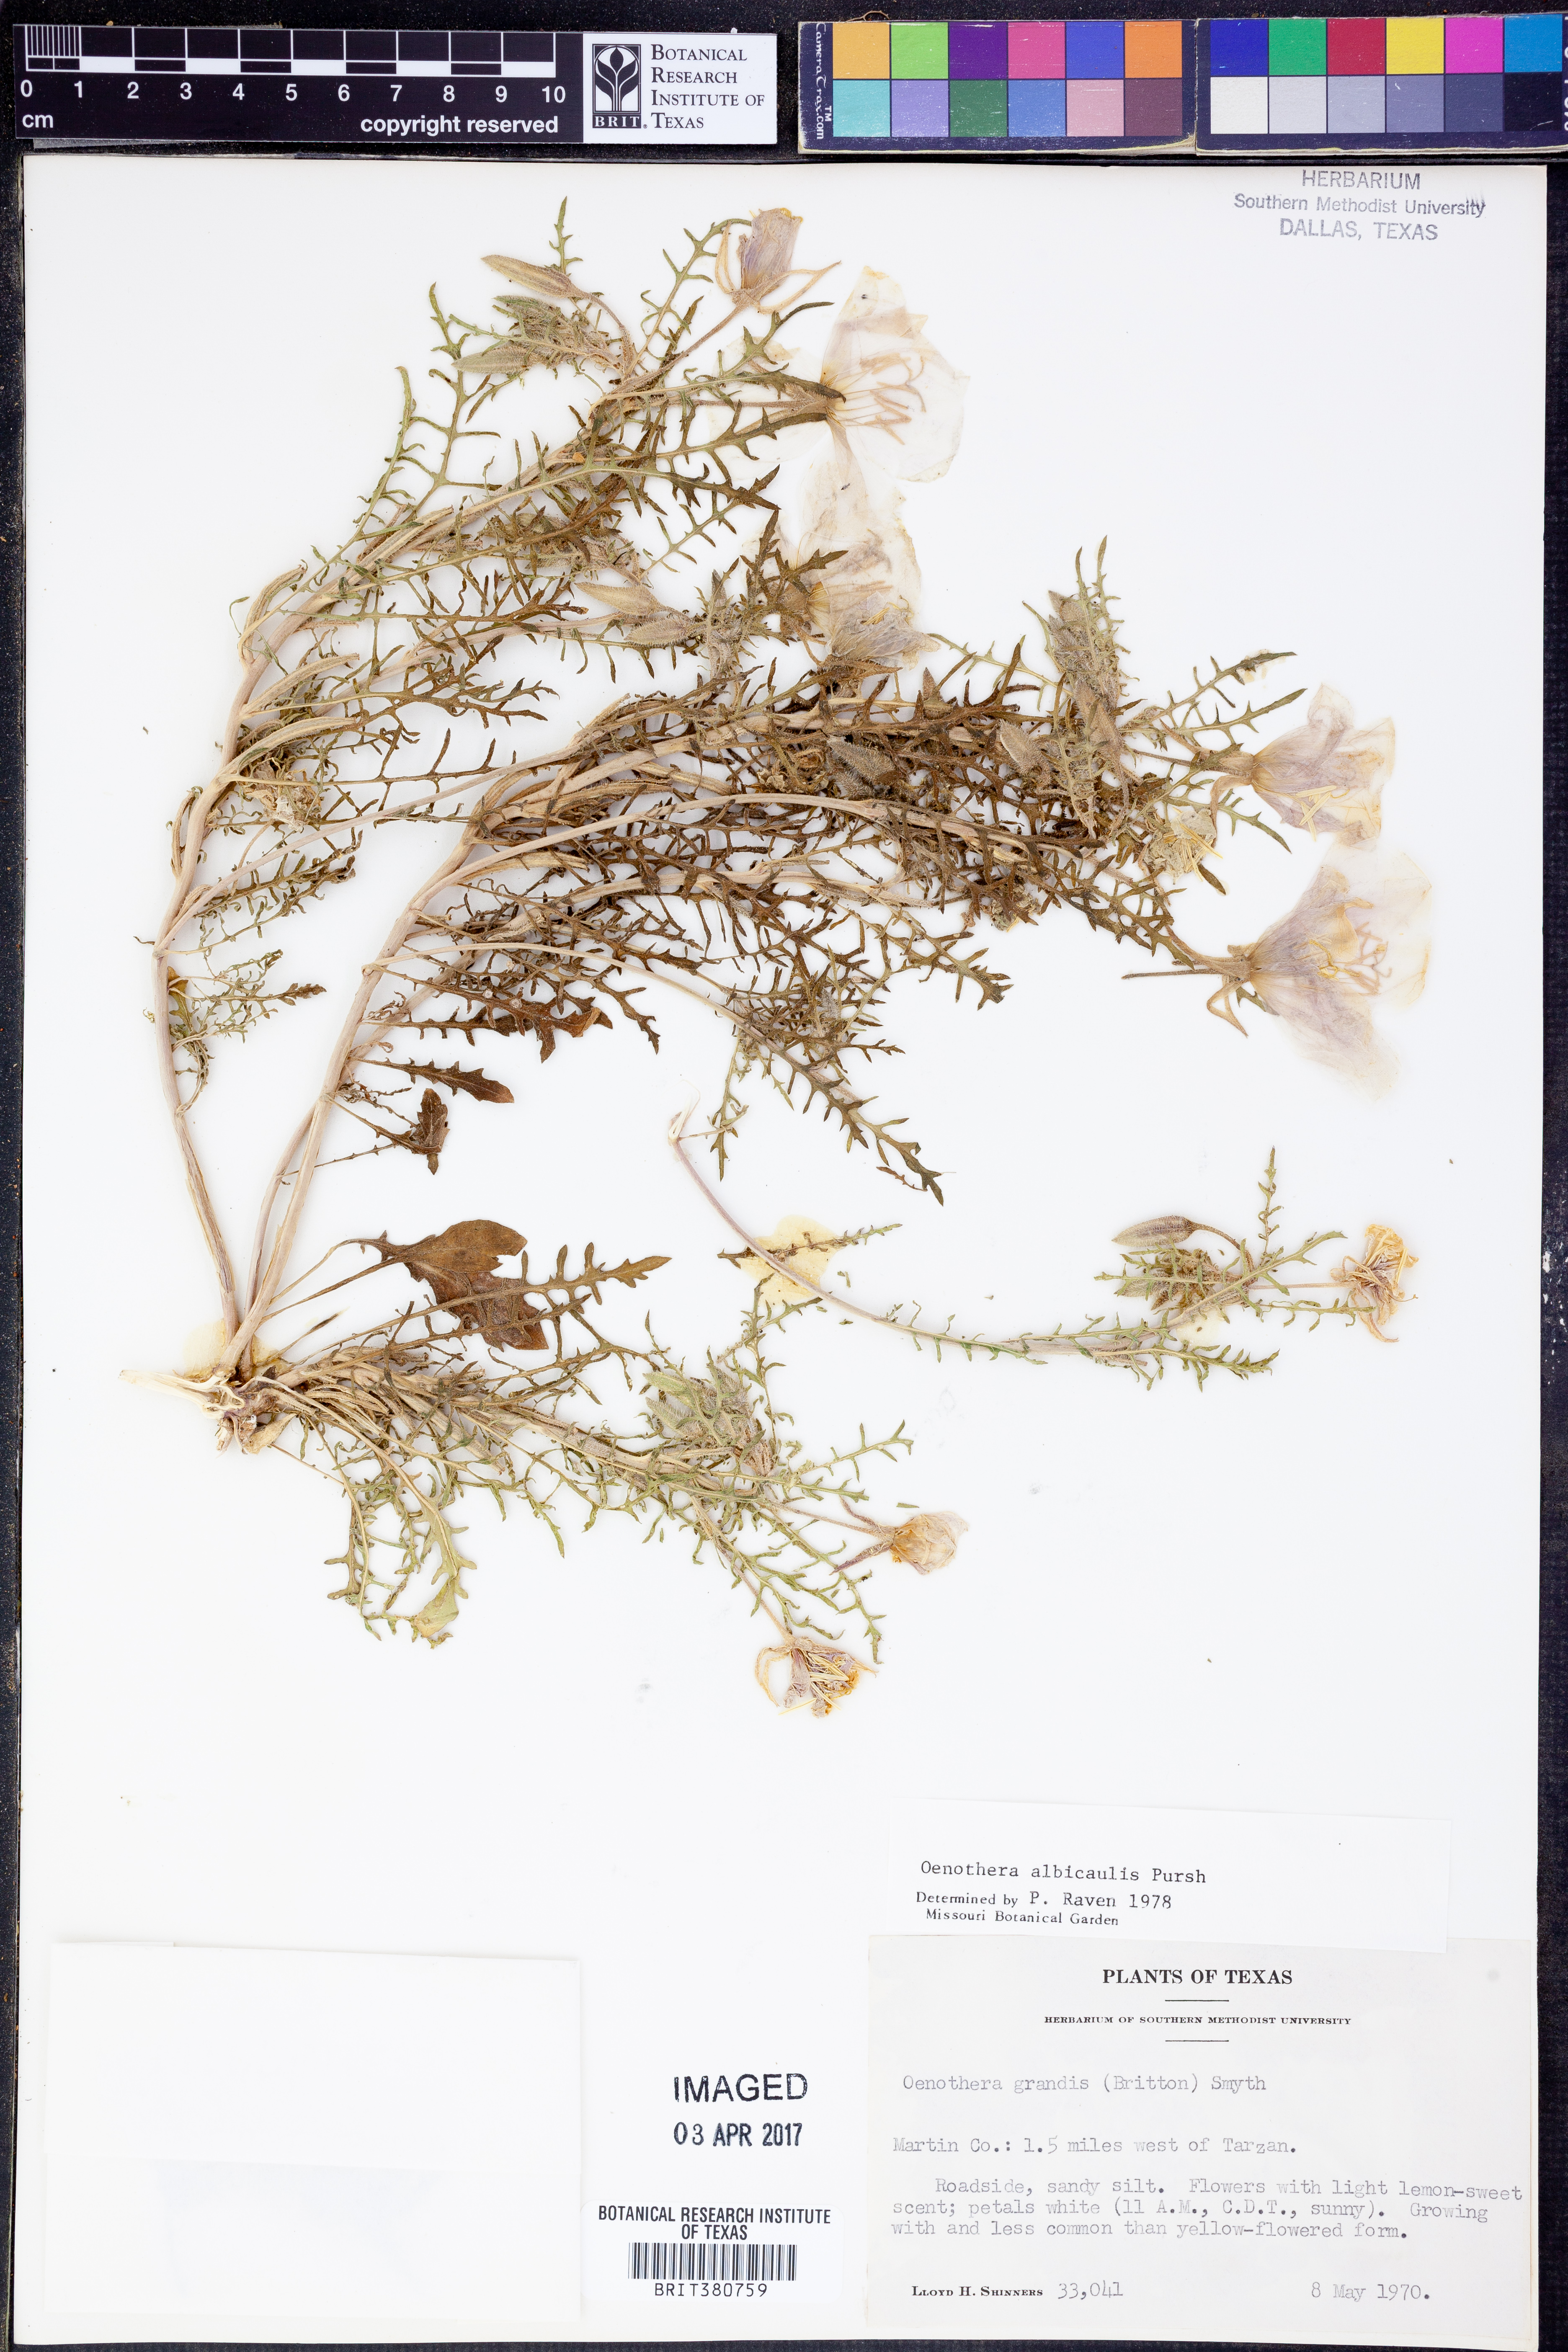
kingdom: Plantae
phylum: Tracheophyta
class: Magnoliopsida
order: Myrtales
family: Onagraceae
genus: Oenothera
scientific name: Oenothera albicaulis
